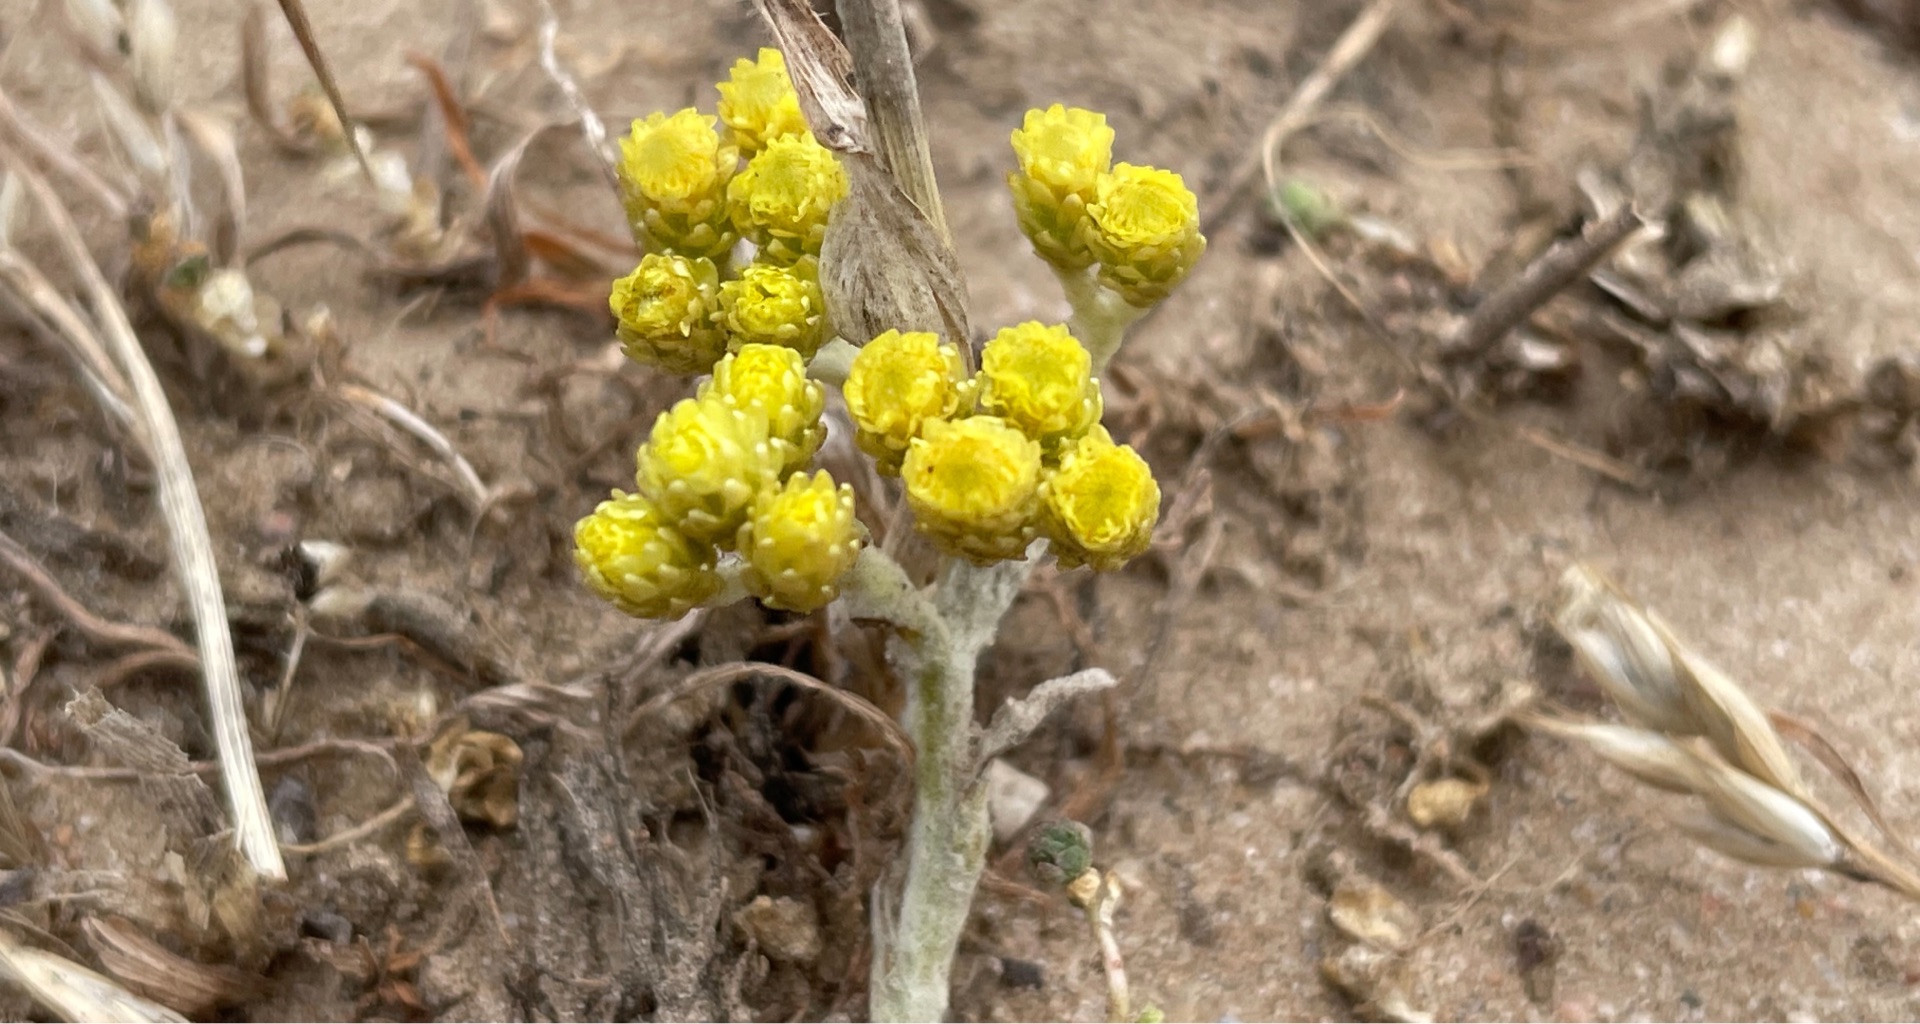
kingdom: Plantae
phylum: Tracheophyta
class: Magnoliopsida
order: Asterales
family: Asteraceae
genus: Helichrysum
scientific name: Helichrysum arenarium
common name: Gul evighedsblomst
